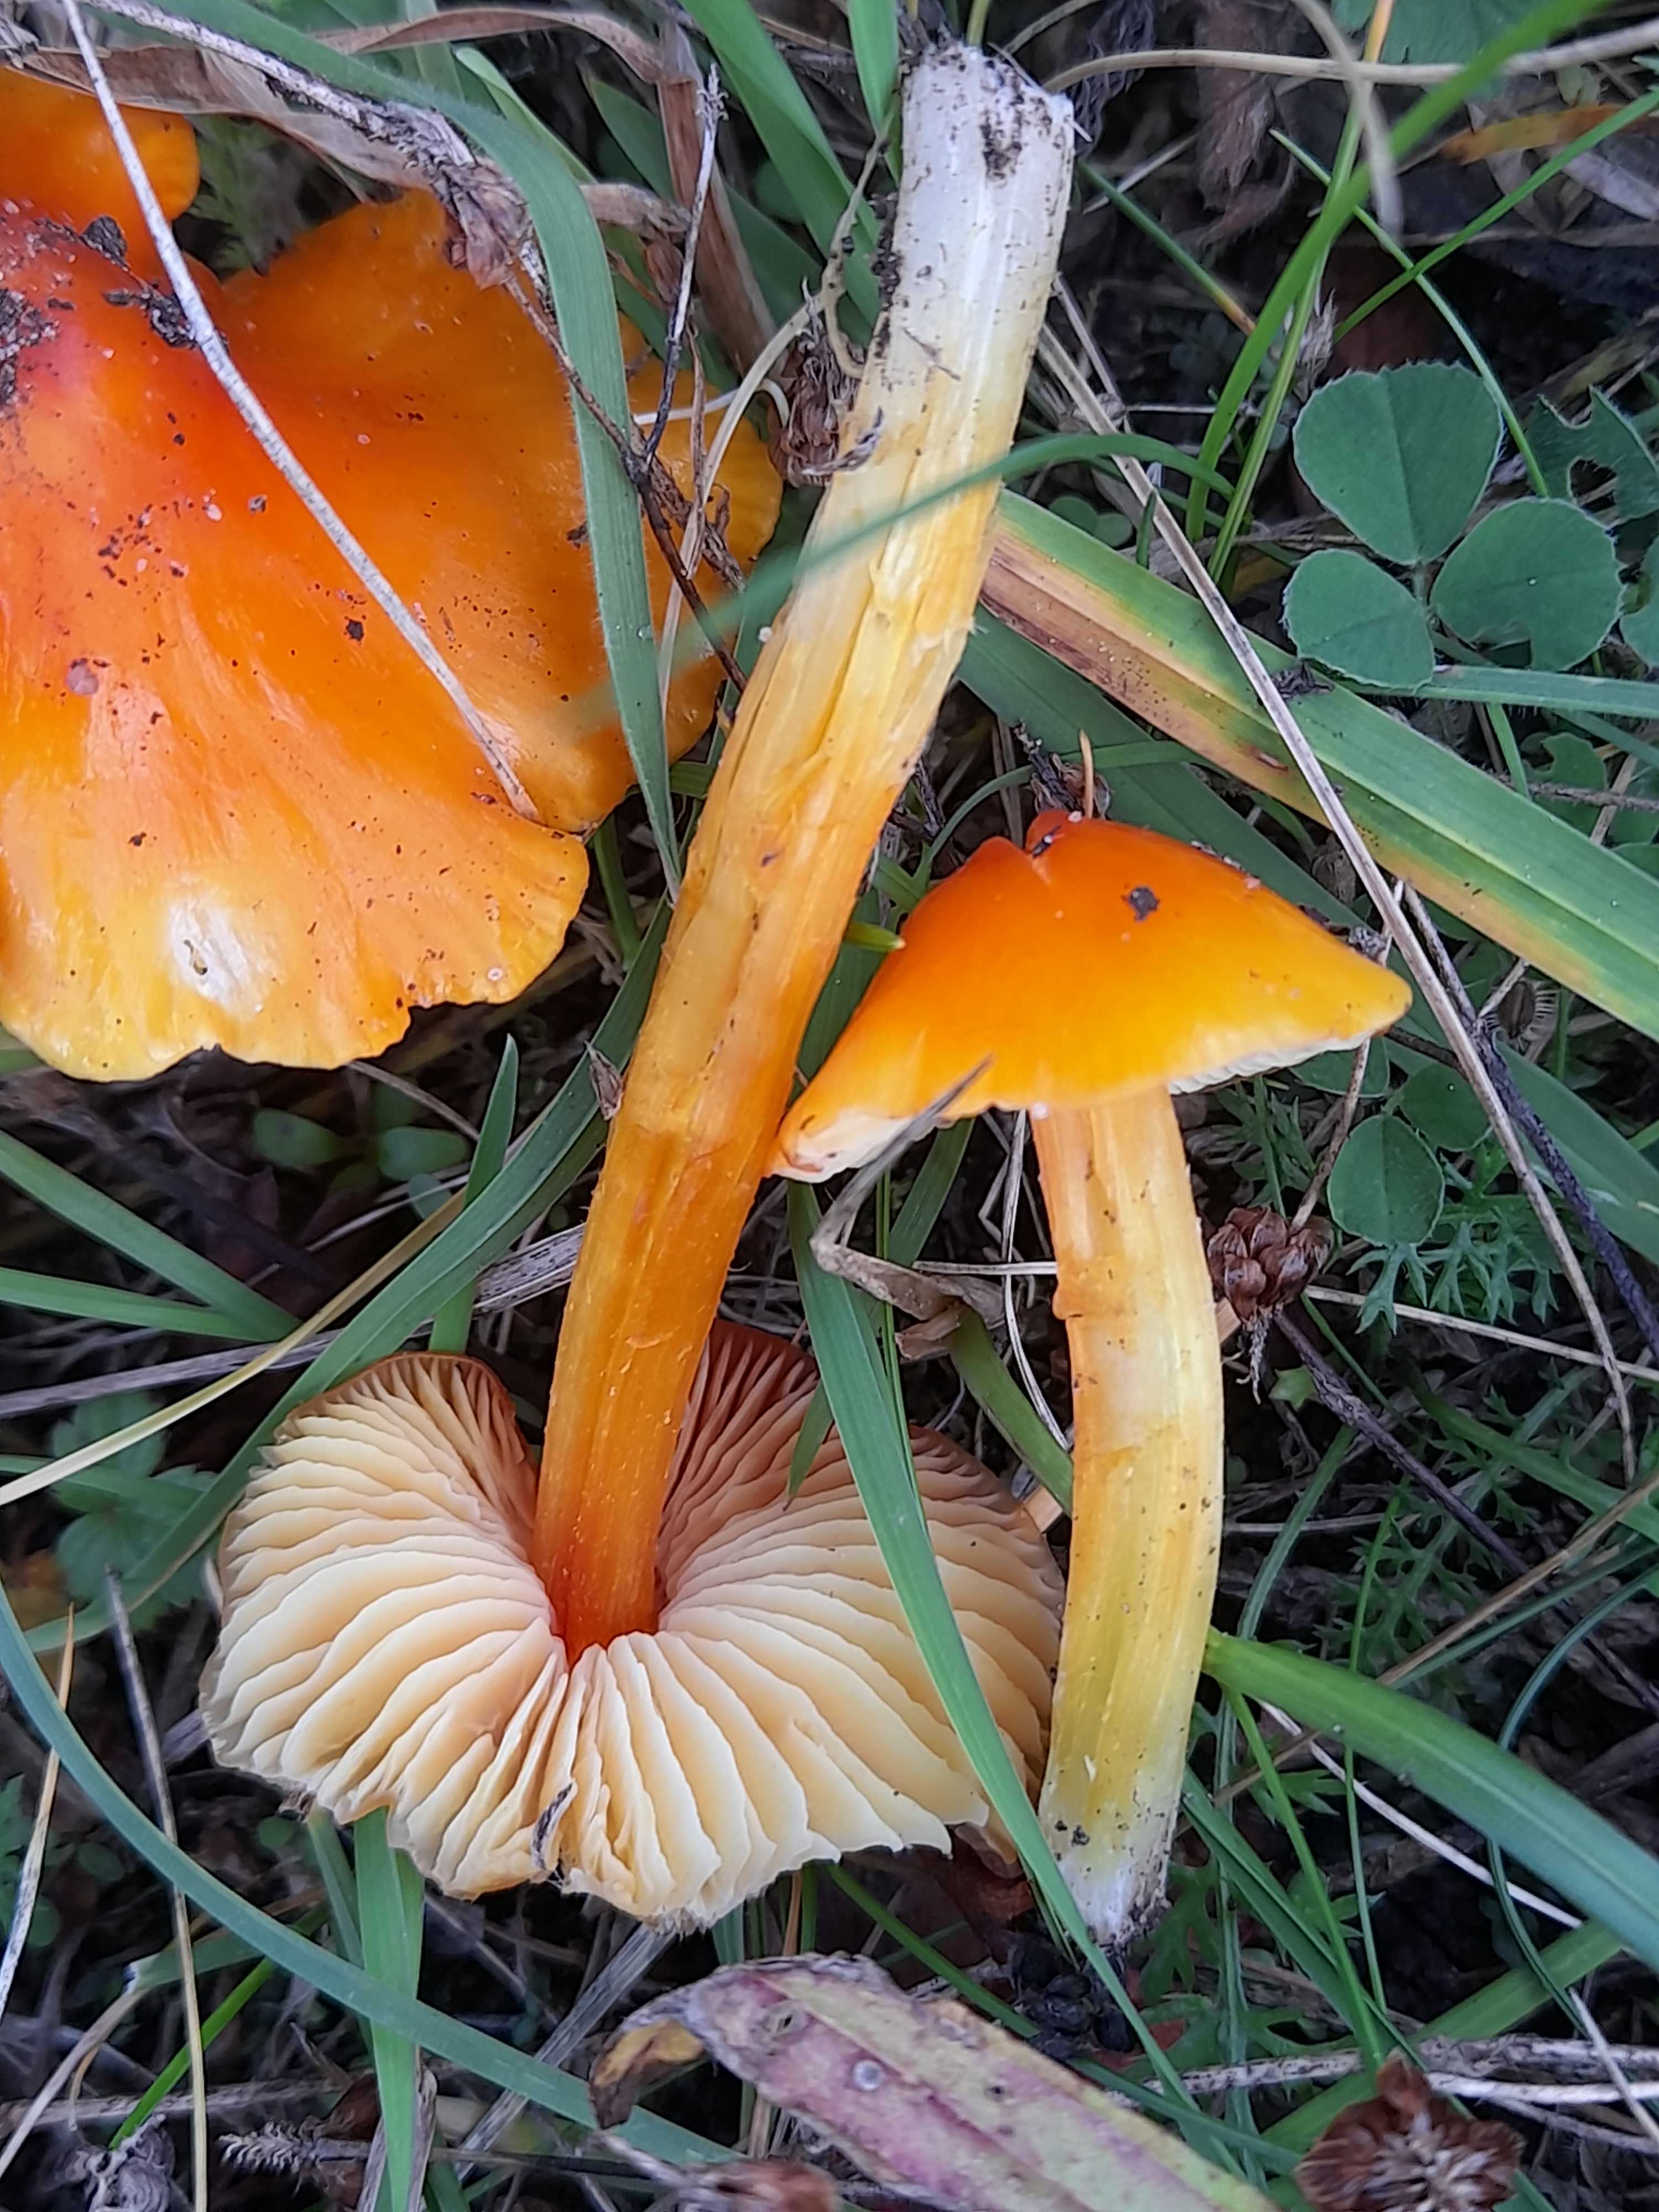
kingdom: Fungi
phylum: Basidiomycota
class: Agaricomycetes
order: Agaricales
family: Hygrophoraceae
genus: Hygrocybe
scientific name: Hygrocybe
